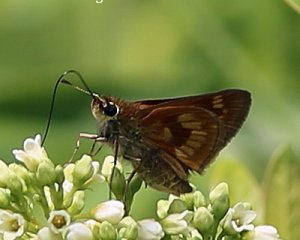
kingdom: Animalia
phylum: Arthropoda
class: Insecta
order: Lepidoptera
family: Hesperiidae
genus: Polites
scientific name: Polites
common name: Long Dash Skipper
